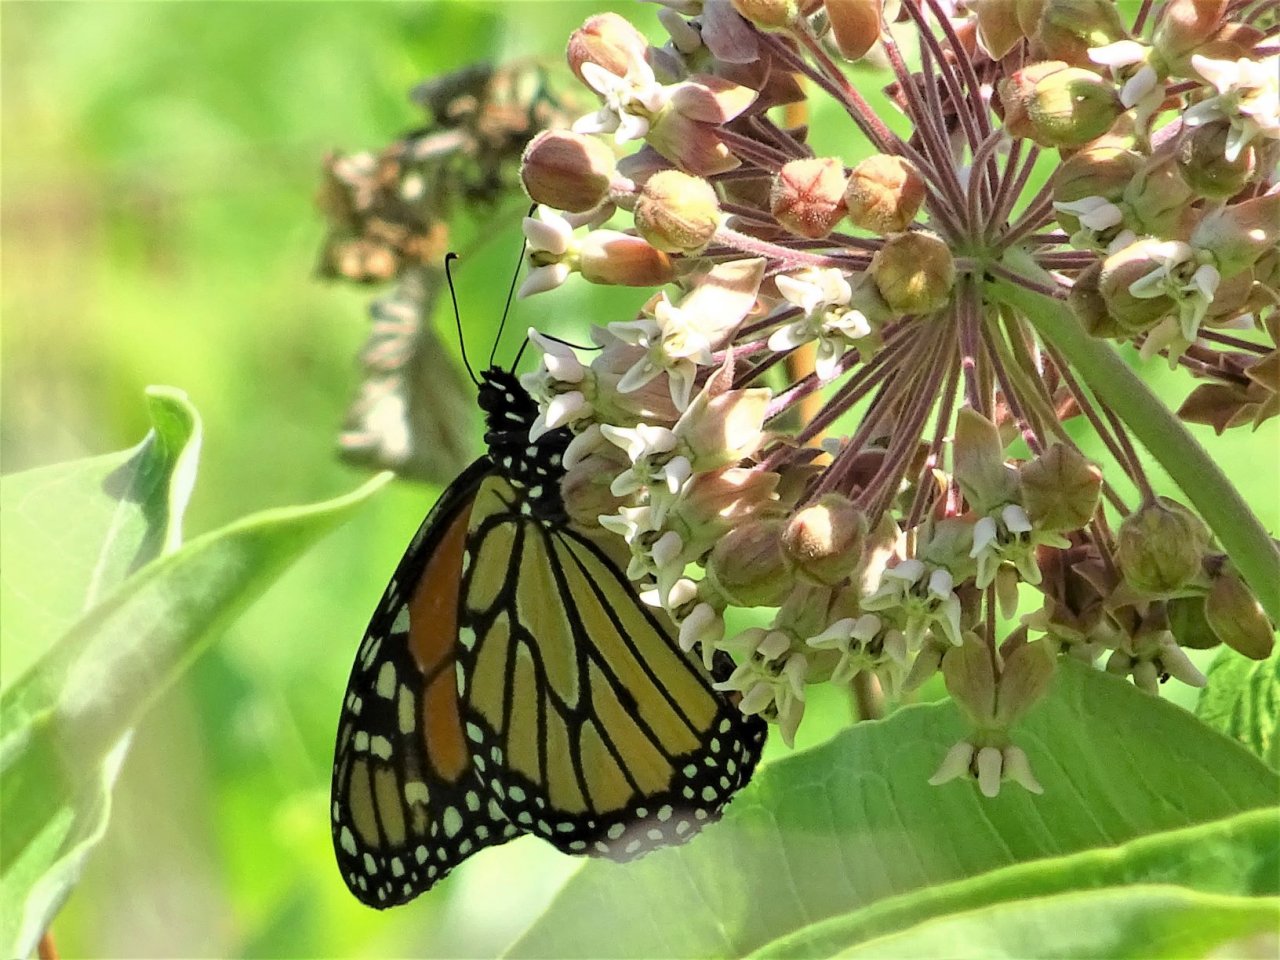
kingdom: Animalia
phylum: Arthropoda
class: Insecta
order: Lepidoptera
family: Nymphalidae
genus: Danaus
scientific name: Danaus plexippus
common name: Monarch
